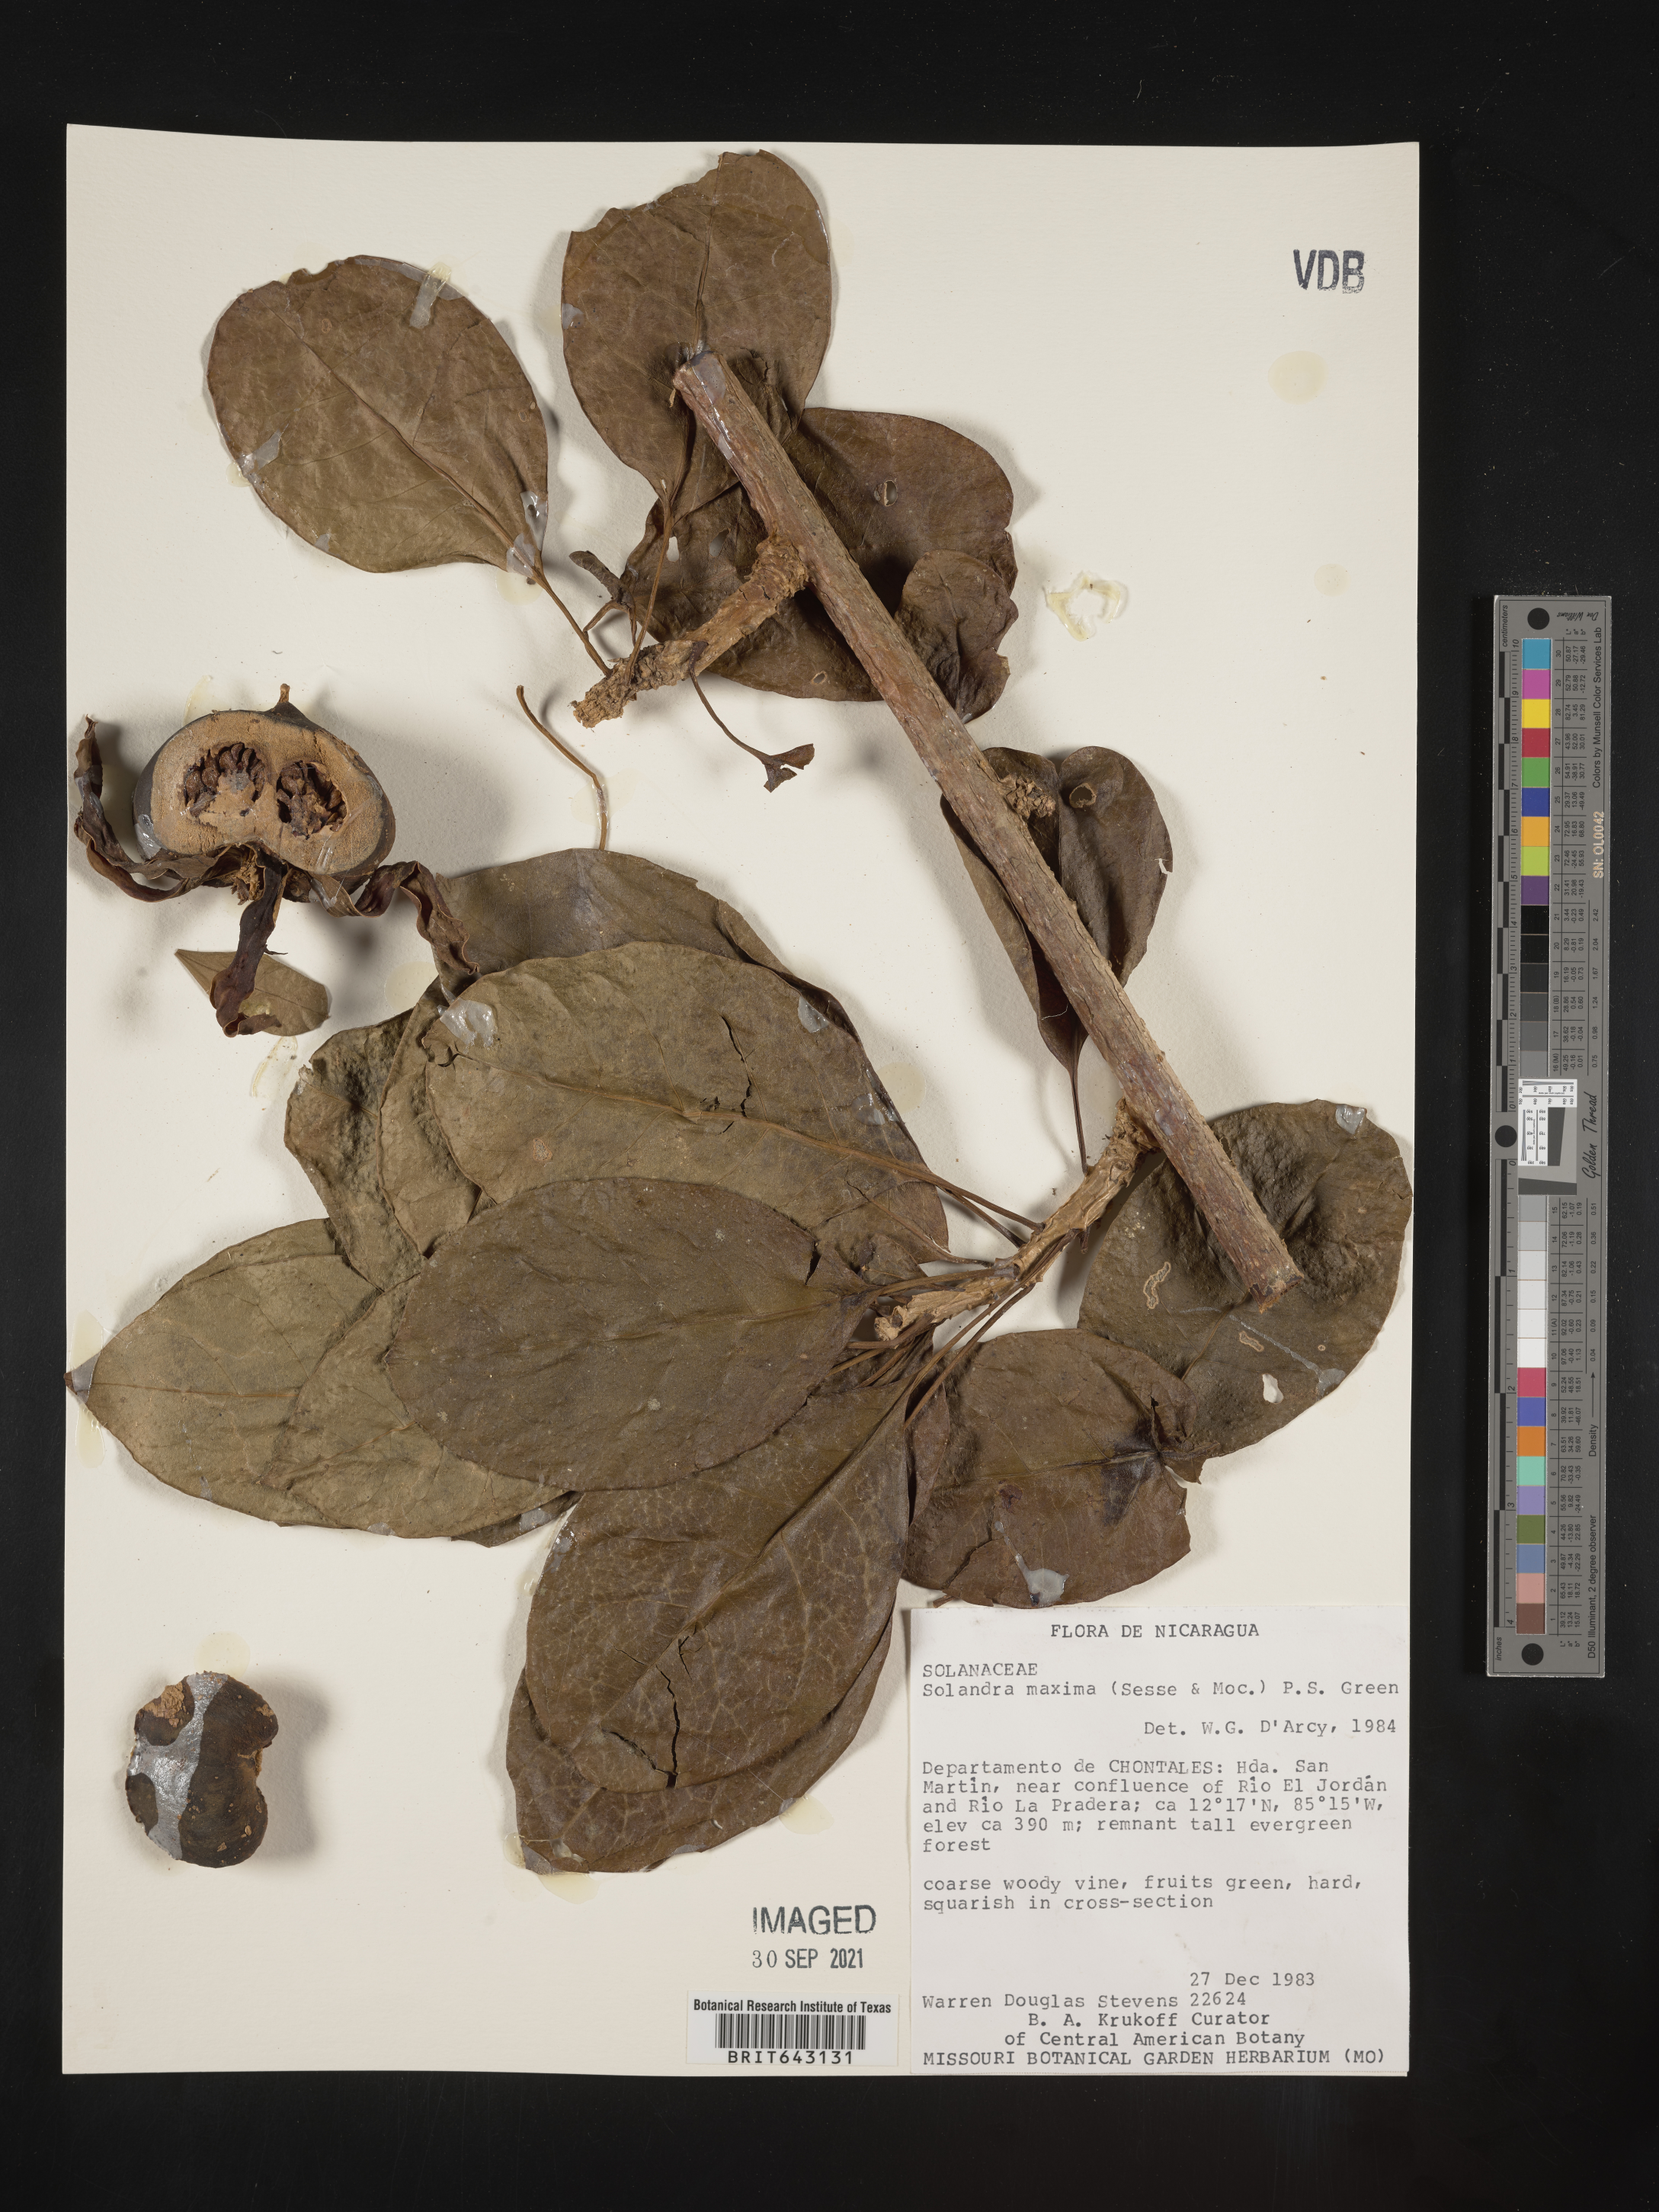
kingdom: Plantae
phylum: Tracheophyta
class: Magnoliopsida
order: Solanales
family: Solanaceae
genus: Solandra
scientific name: Solandra
